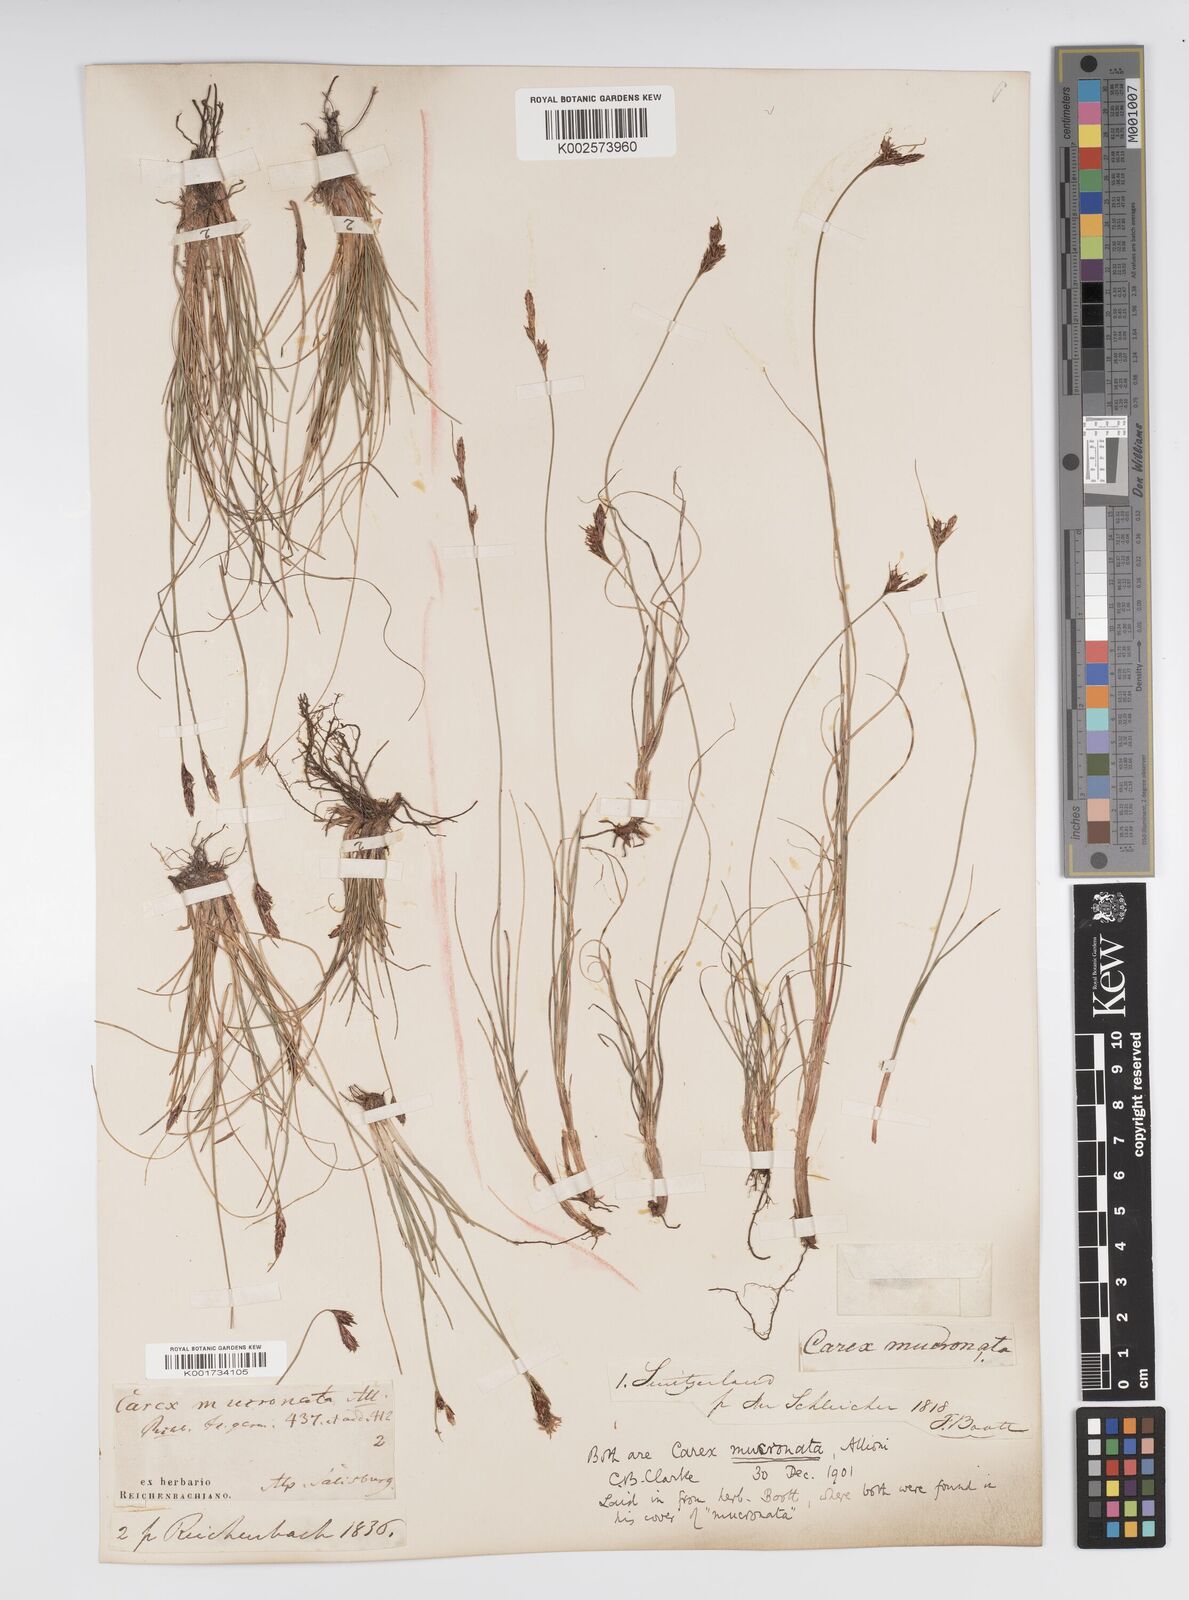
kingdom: Plantae
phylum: Tracheophyta
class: Liliopsida
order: Poales
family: Cyperaceae
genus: Carex
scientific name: Carex mucronata
